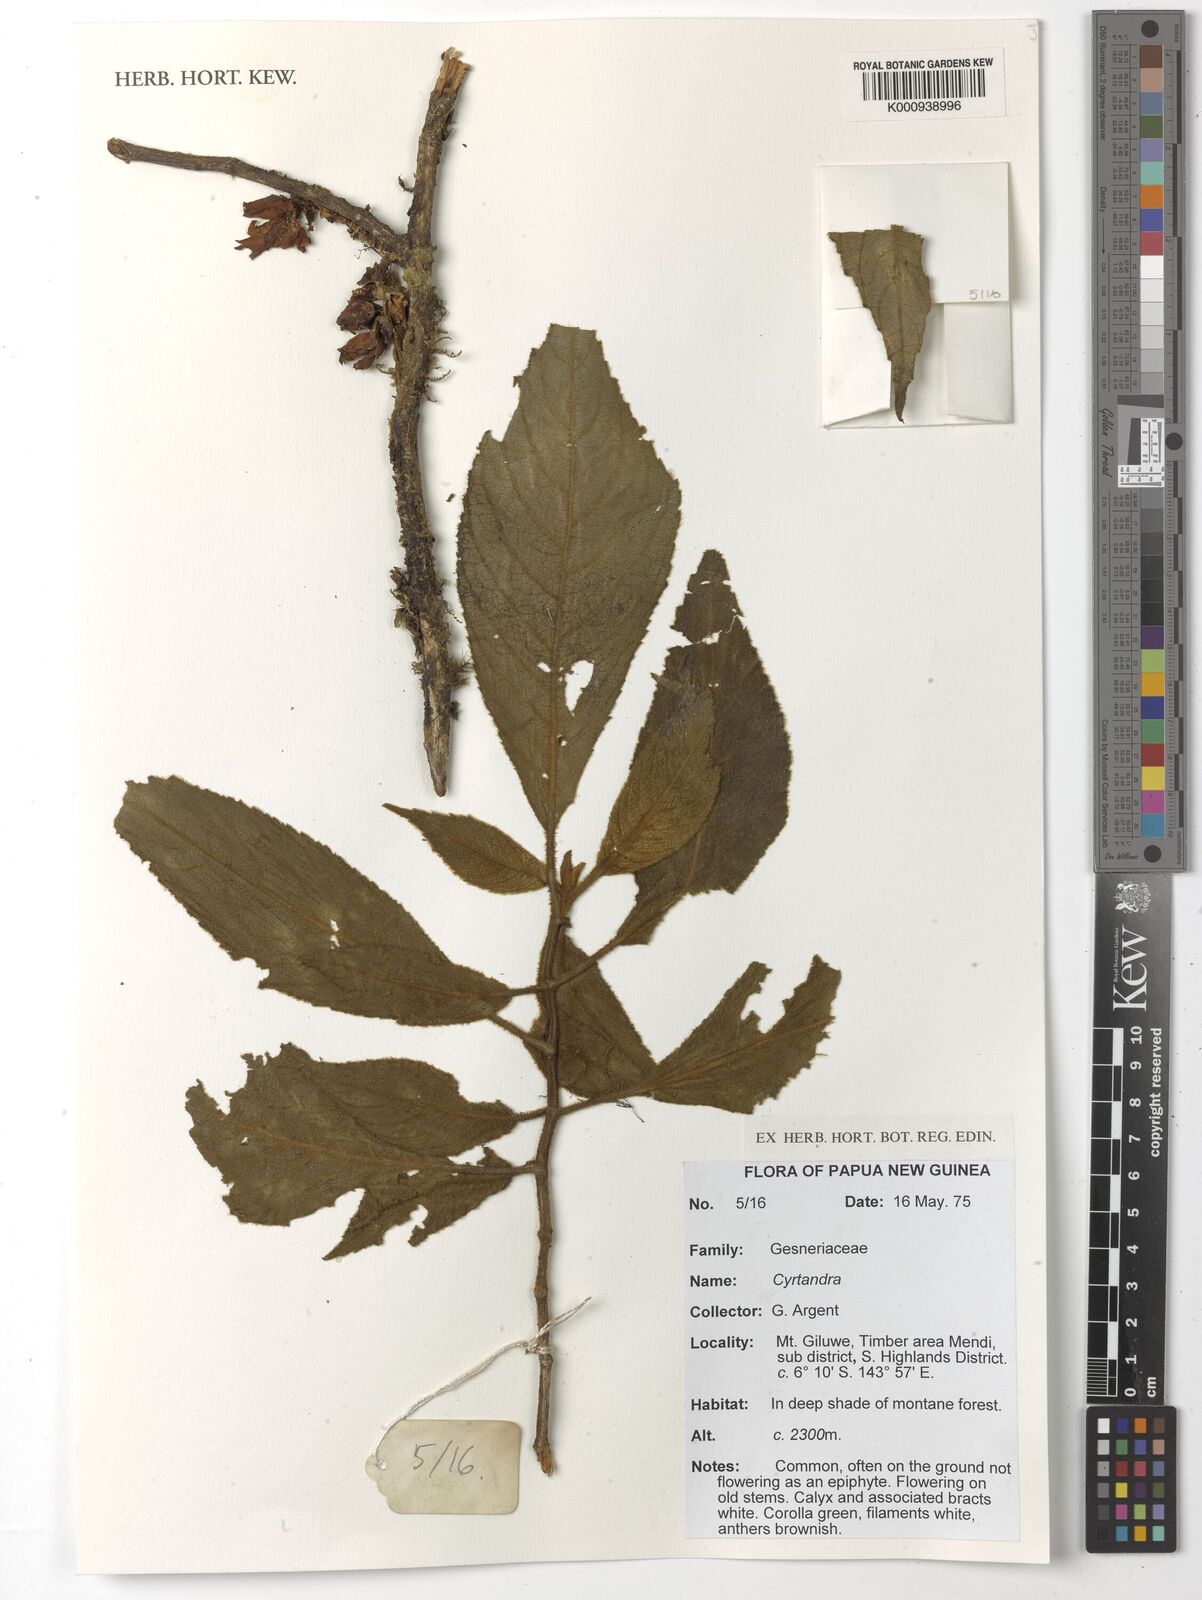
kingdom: Plantae
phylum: Tracheophyta
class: Magnoliopsida
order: Lamiales
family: Gesneriaceae
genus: Cyrtandra
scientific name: Cyrtandra
